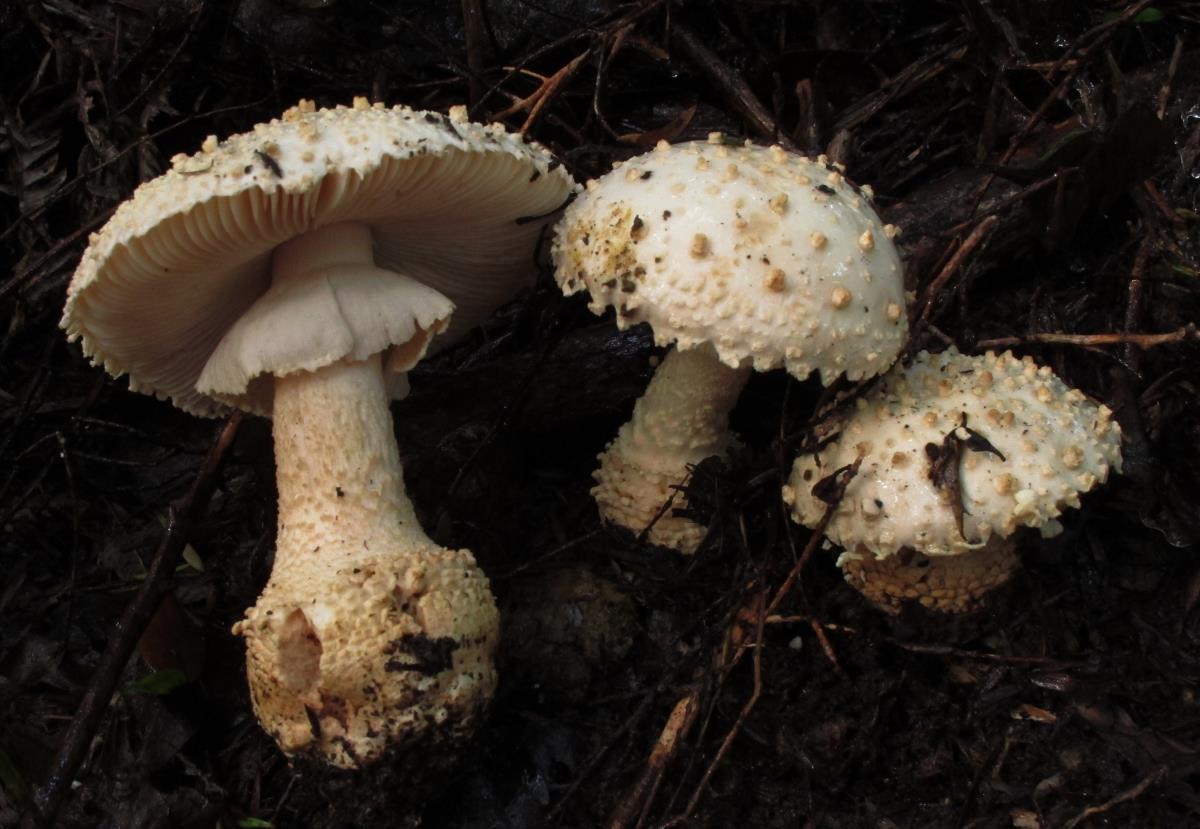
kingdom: Fungi
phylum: Basidiomycota
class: Agaricomycetes
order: Agaricales
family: Amanitaceae
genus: Amanita
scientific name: Amanita pareparina
